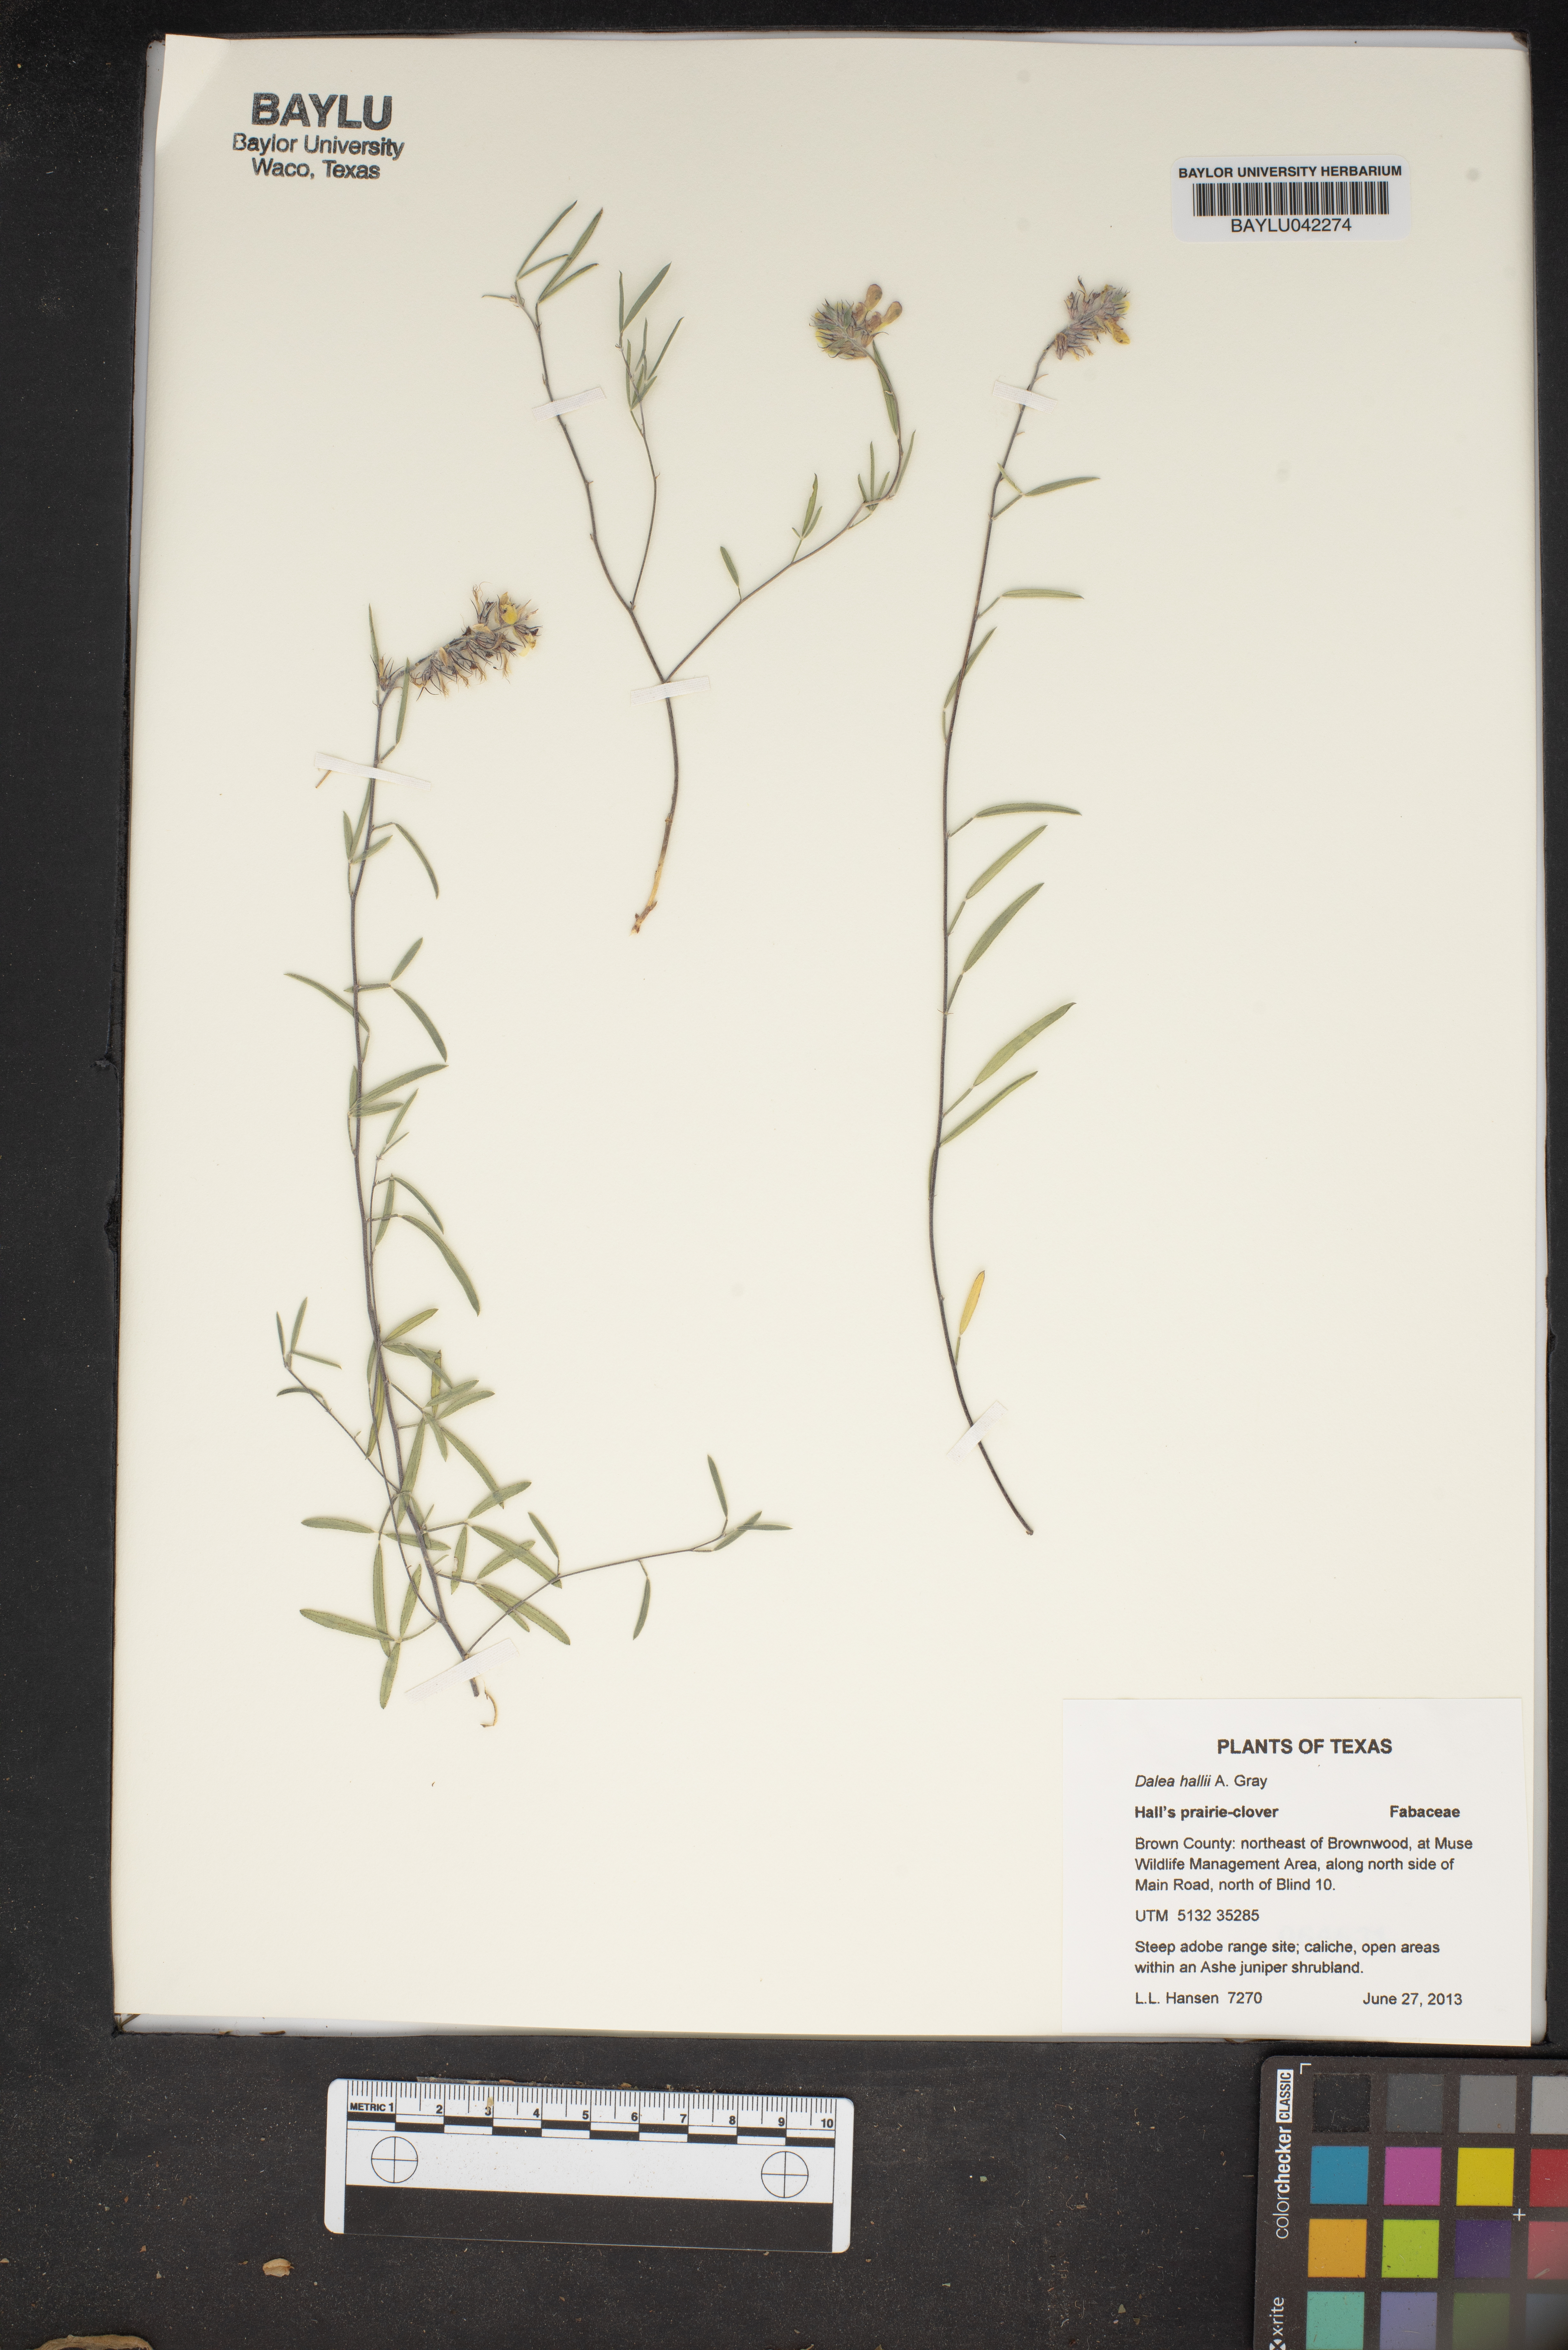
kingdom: Plantae
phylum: Tracheophyta
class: Magnoliopsida
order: Fabales
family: Fabaceae
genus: Dalea
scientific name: Dalea hallii
